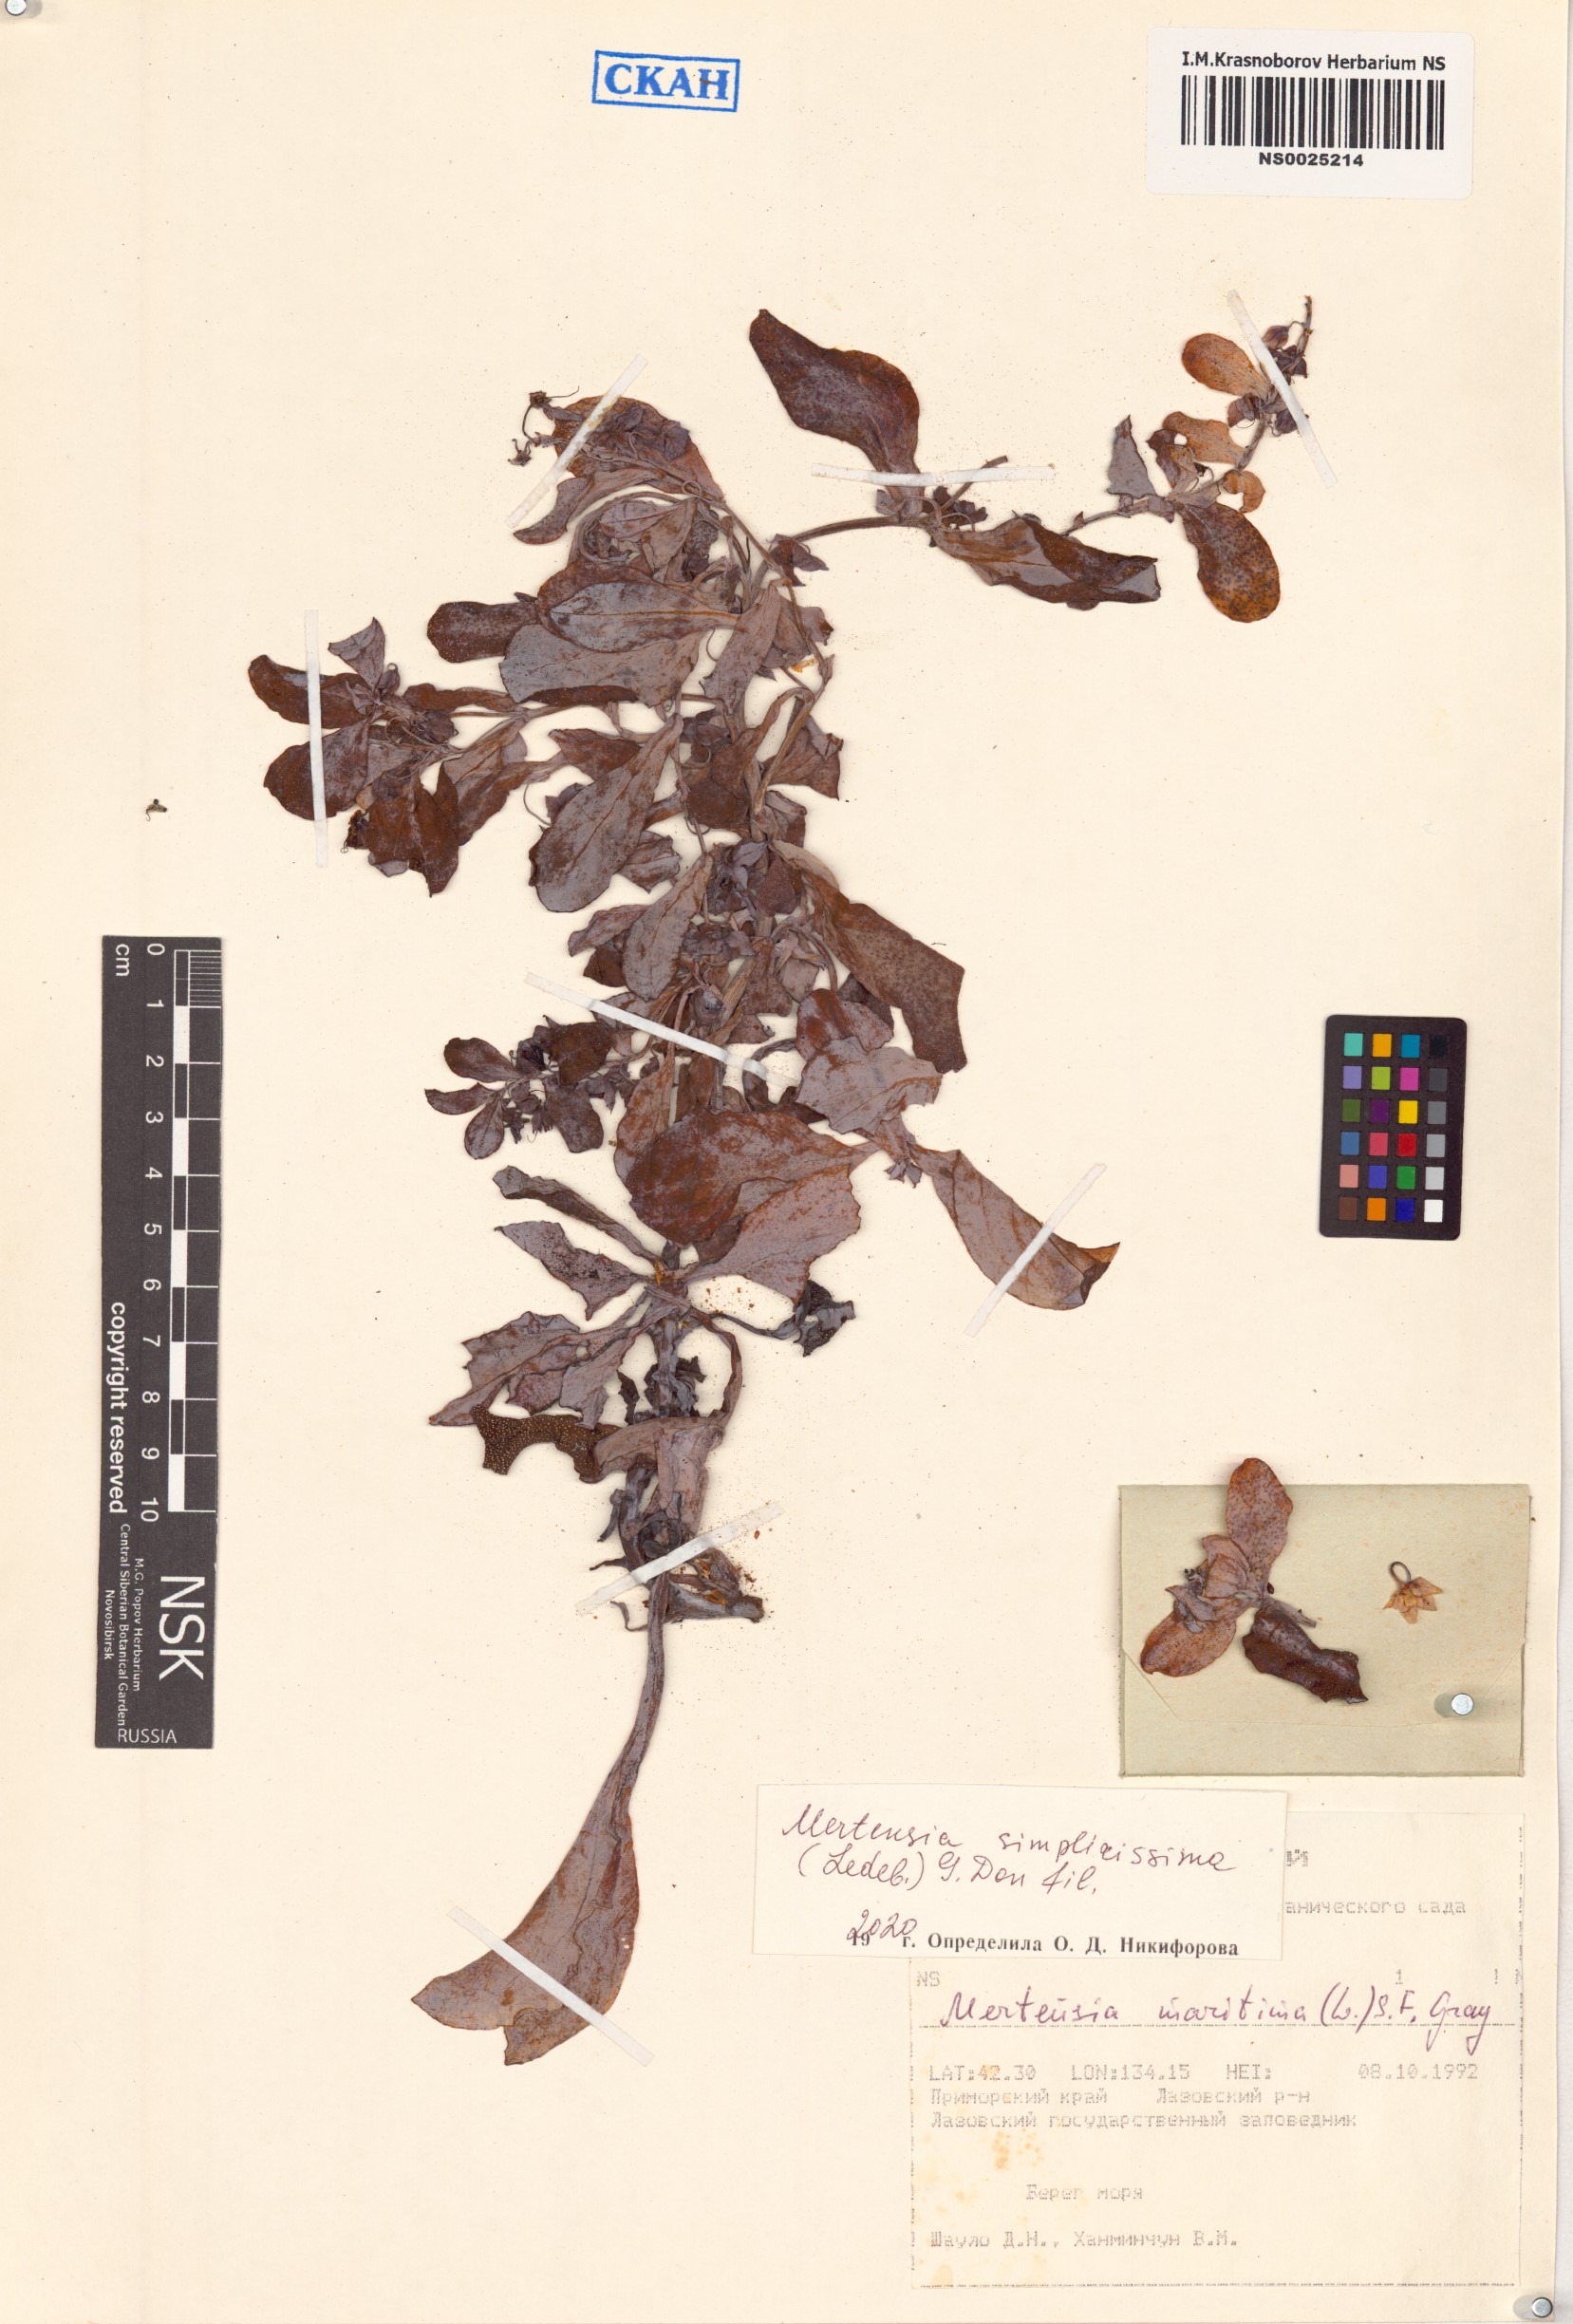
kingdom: Plantae
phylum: Tracheophyta
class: Magnoliopsida
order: Boraginales
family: Boraginaceae
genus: Mertensia
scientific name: Mertensia maritima
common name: Oysterplant
